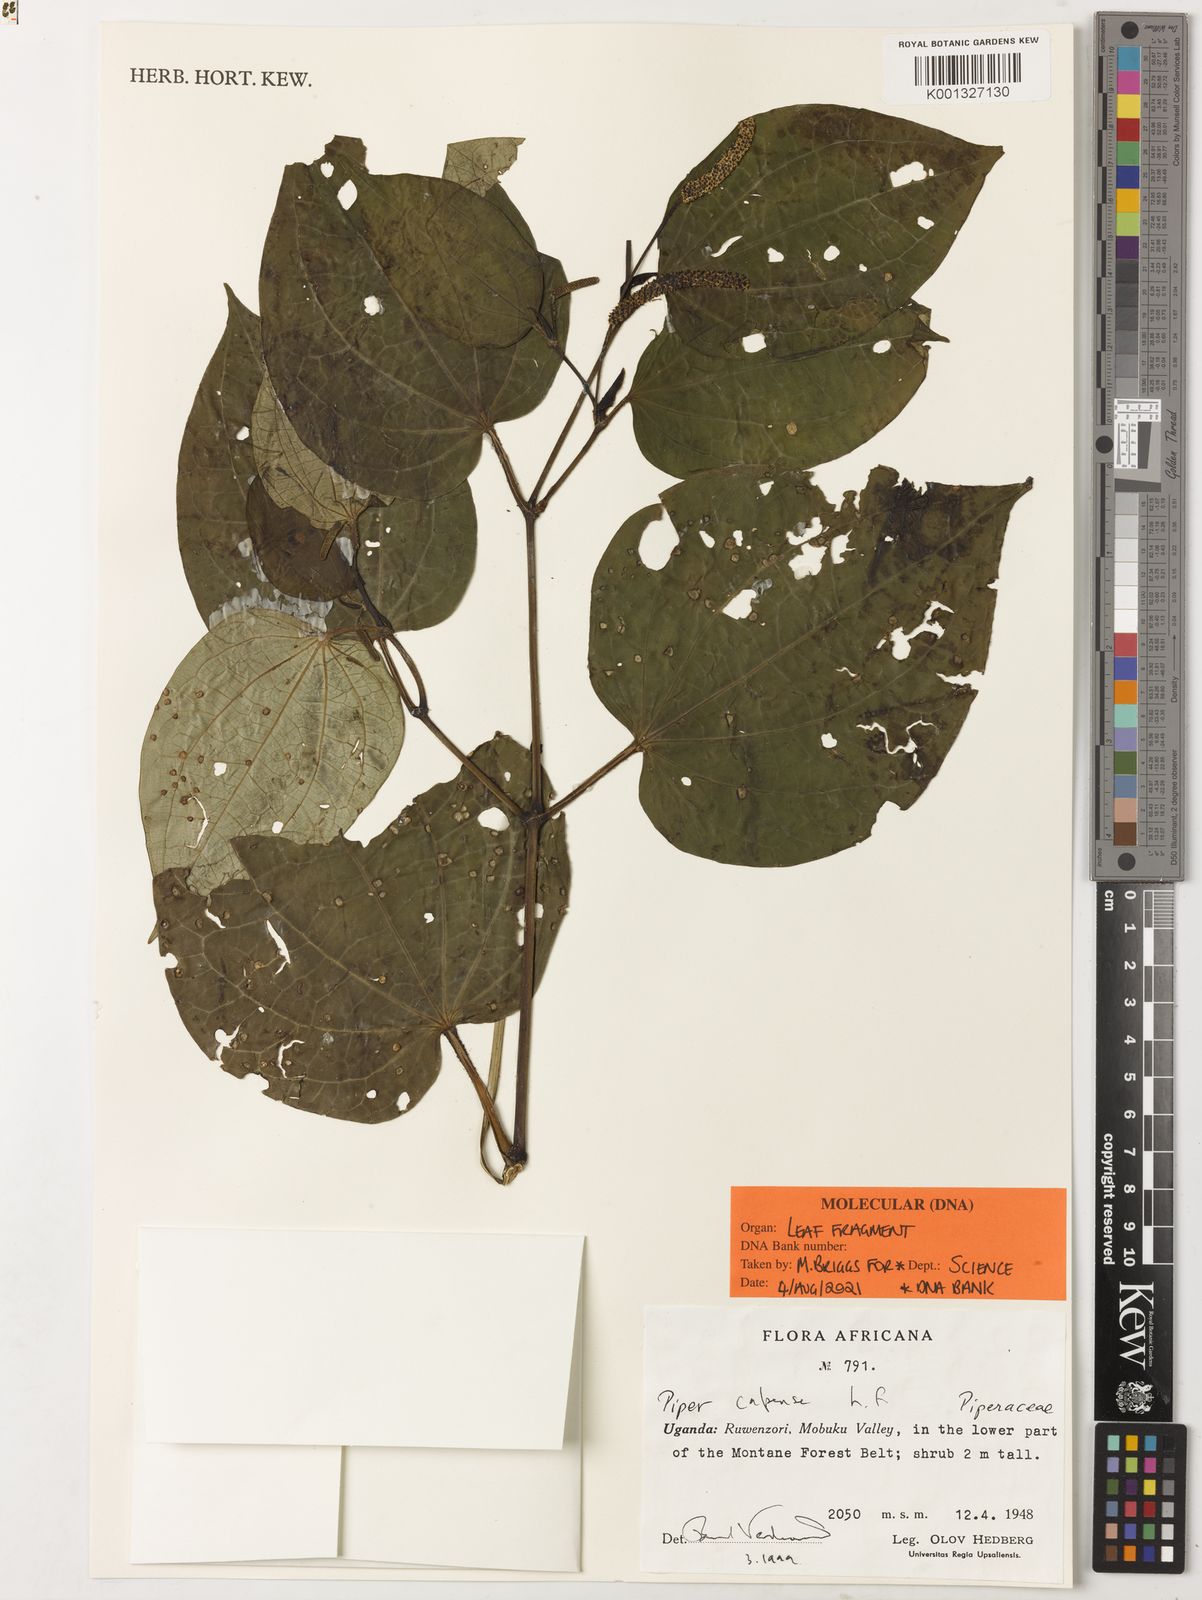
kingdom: Plantae
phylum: Tracheophyta
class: Magnoliopsida
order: Piperales
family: Piperaceae
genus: Piper
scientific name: Piper capense
